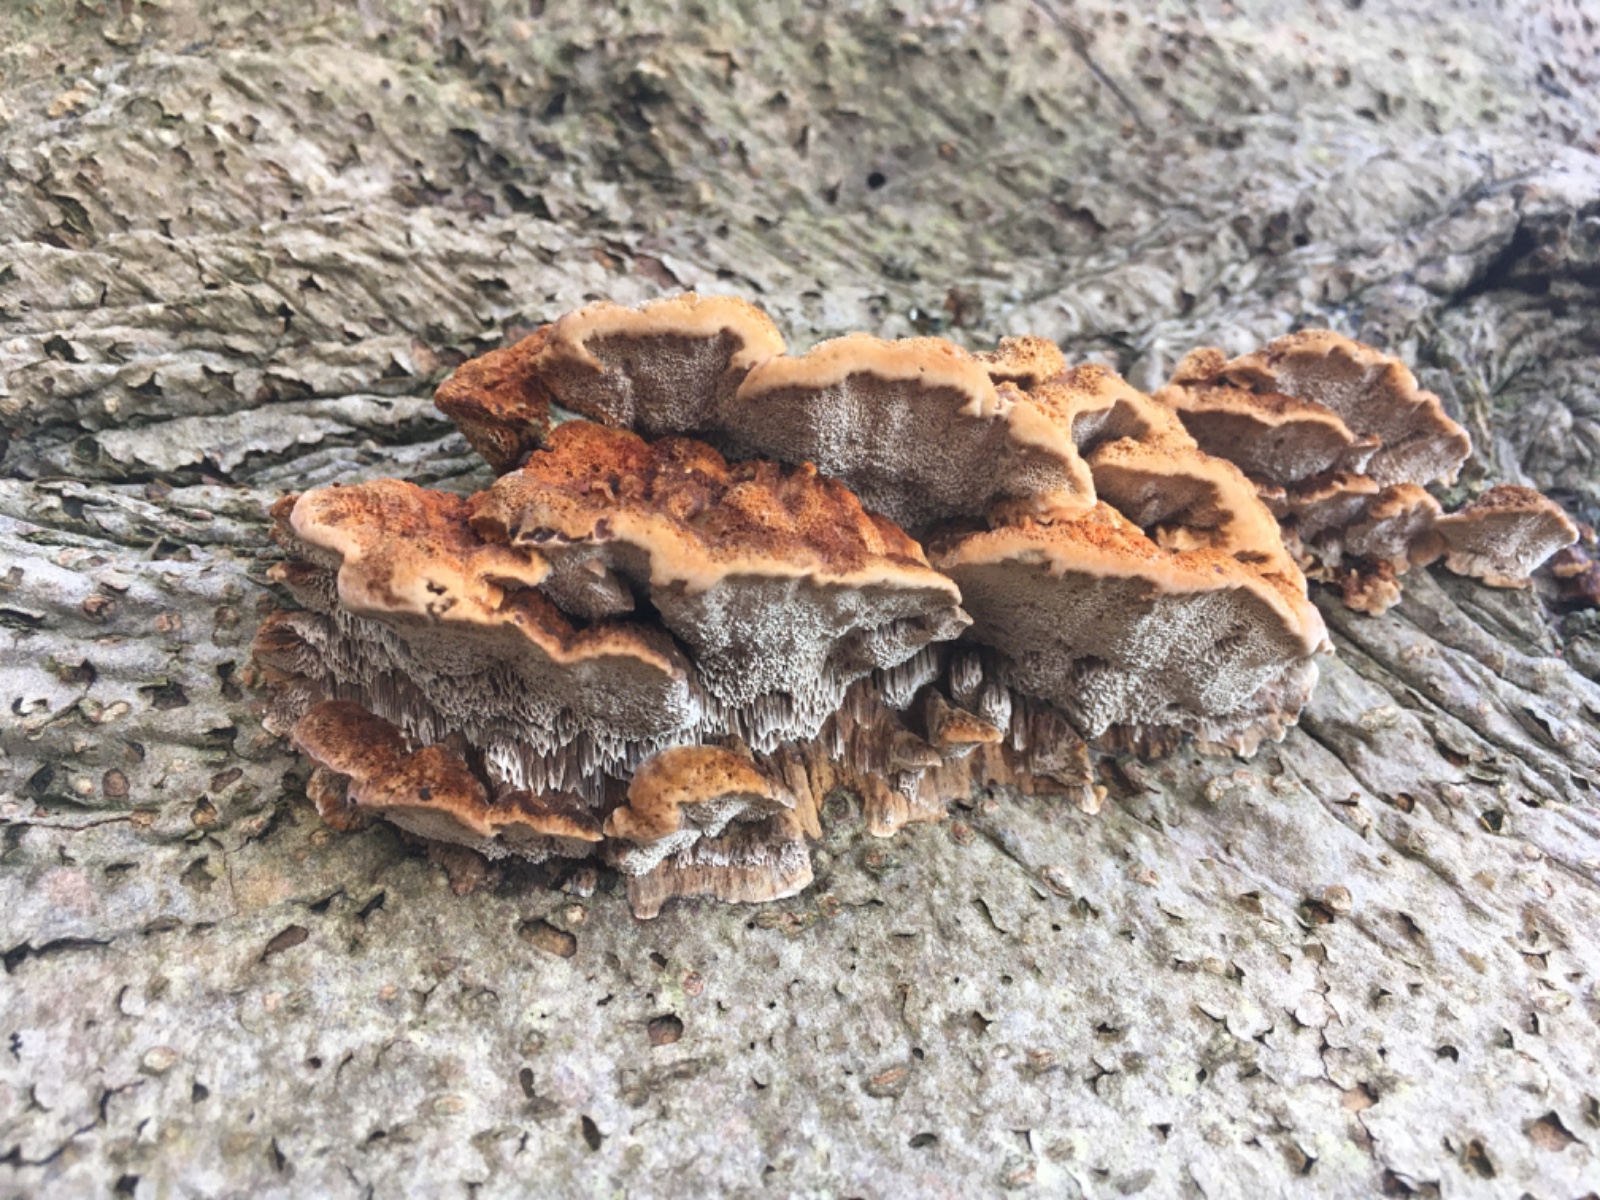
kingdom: Fungi
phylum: Basidiomycota
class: Agaricomycetes
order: Hymenochaetales
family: Hymenochaetaceae
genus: Mensularia
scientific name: Mensularia nodulosa
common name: bøge-spejlporesvamp
